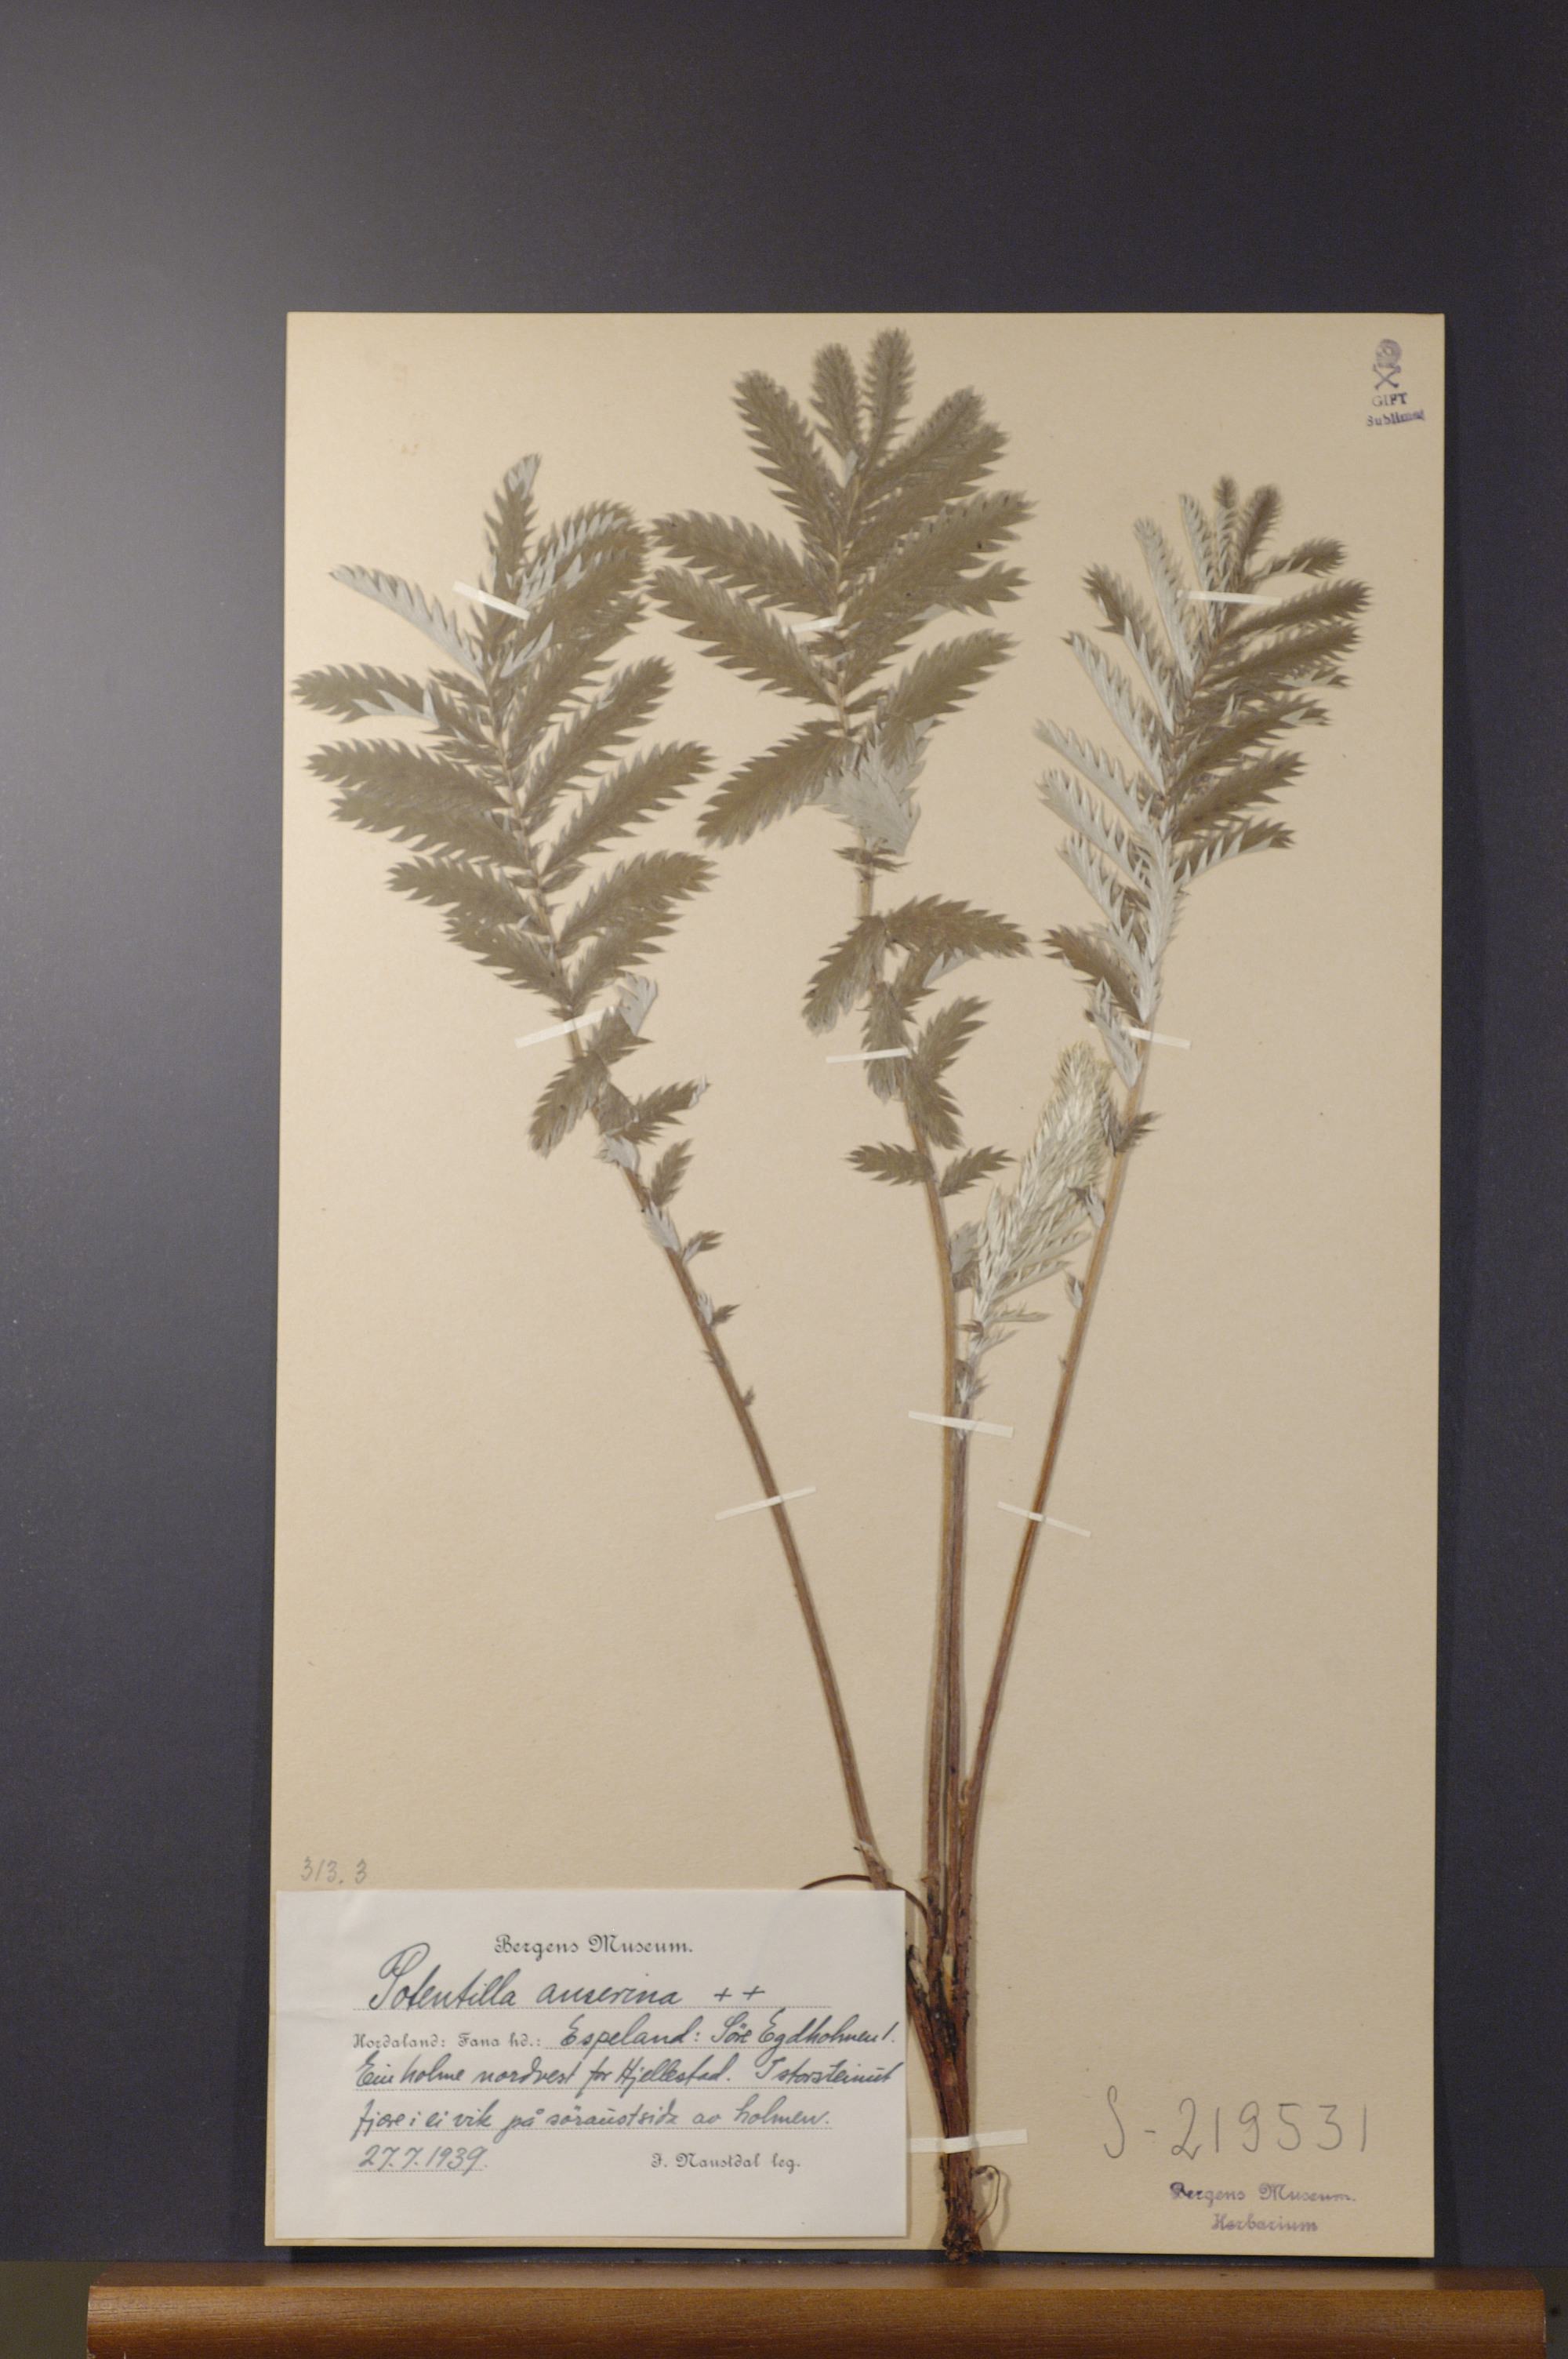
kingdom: Plantae
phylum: Tracheophyta
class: Magnoliopsida
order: Rosales
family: Rosaceae
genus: Argentina
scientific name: Argentina anserina
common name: Common silverweed
